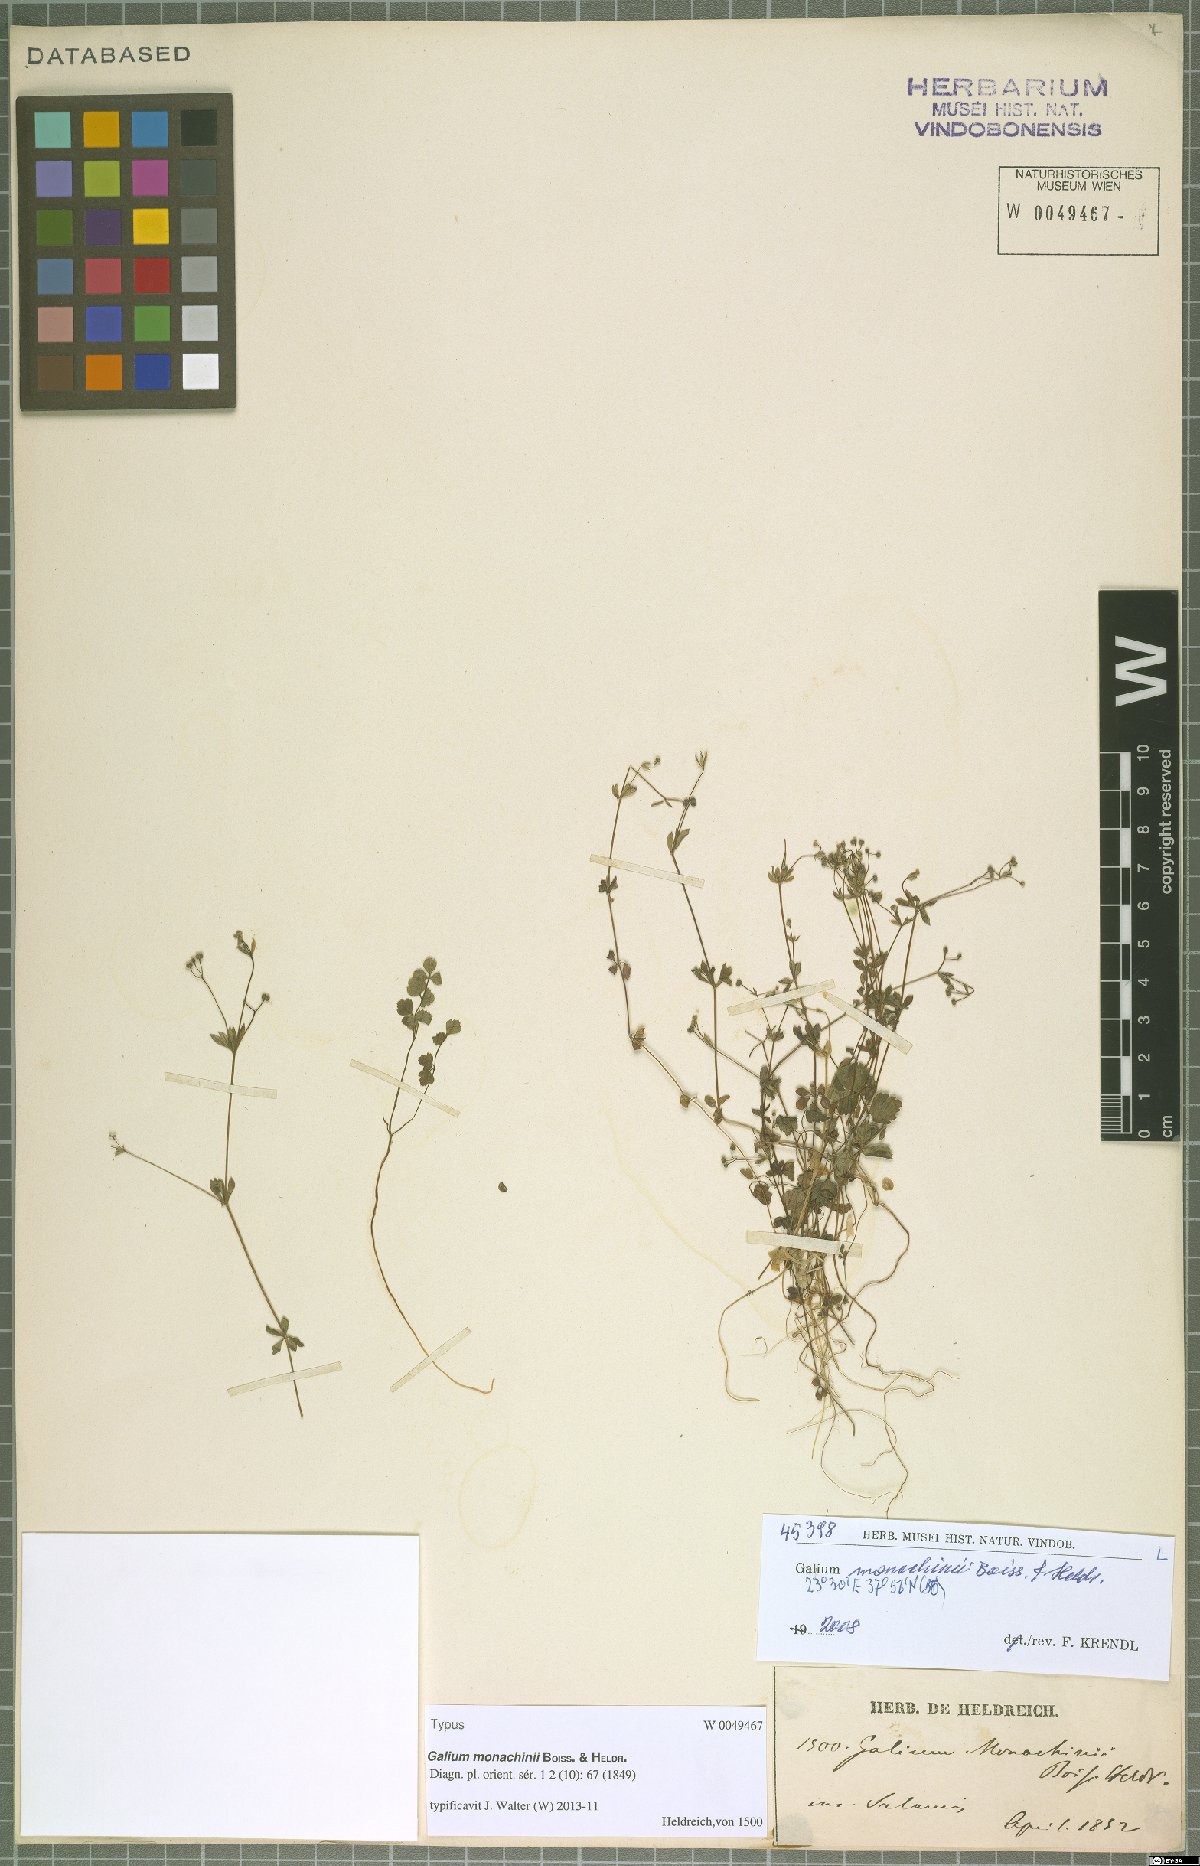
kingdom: Plantae
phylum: Tracheophyta
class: Magnoliopsida
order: Gentianales
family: Rubiaceae
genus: Galium
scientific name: Galium monachinii
